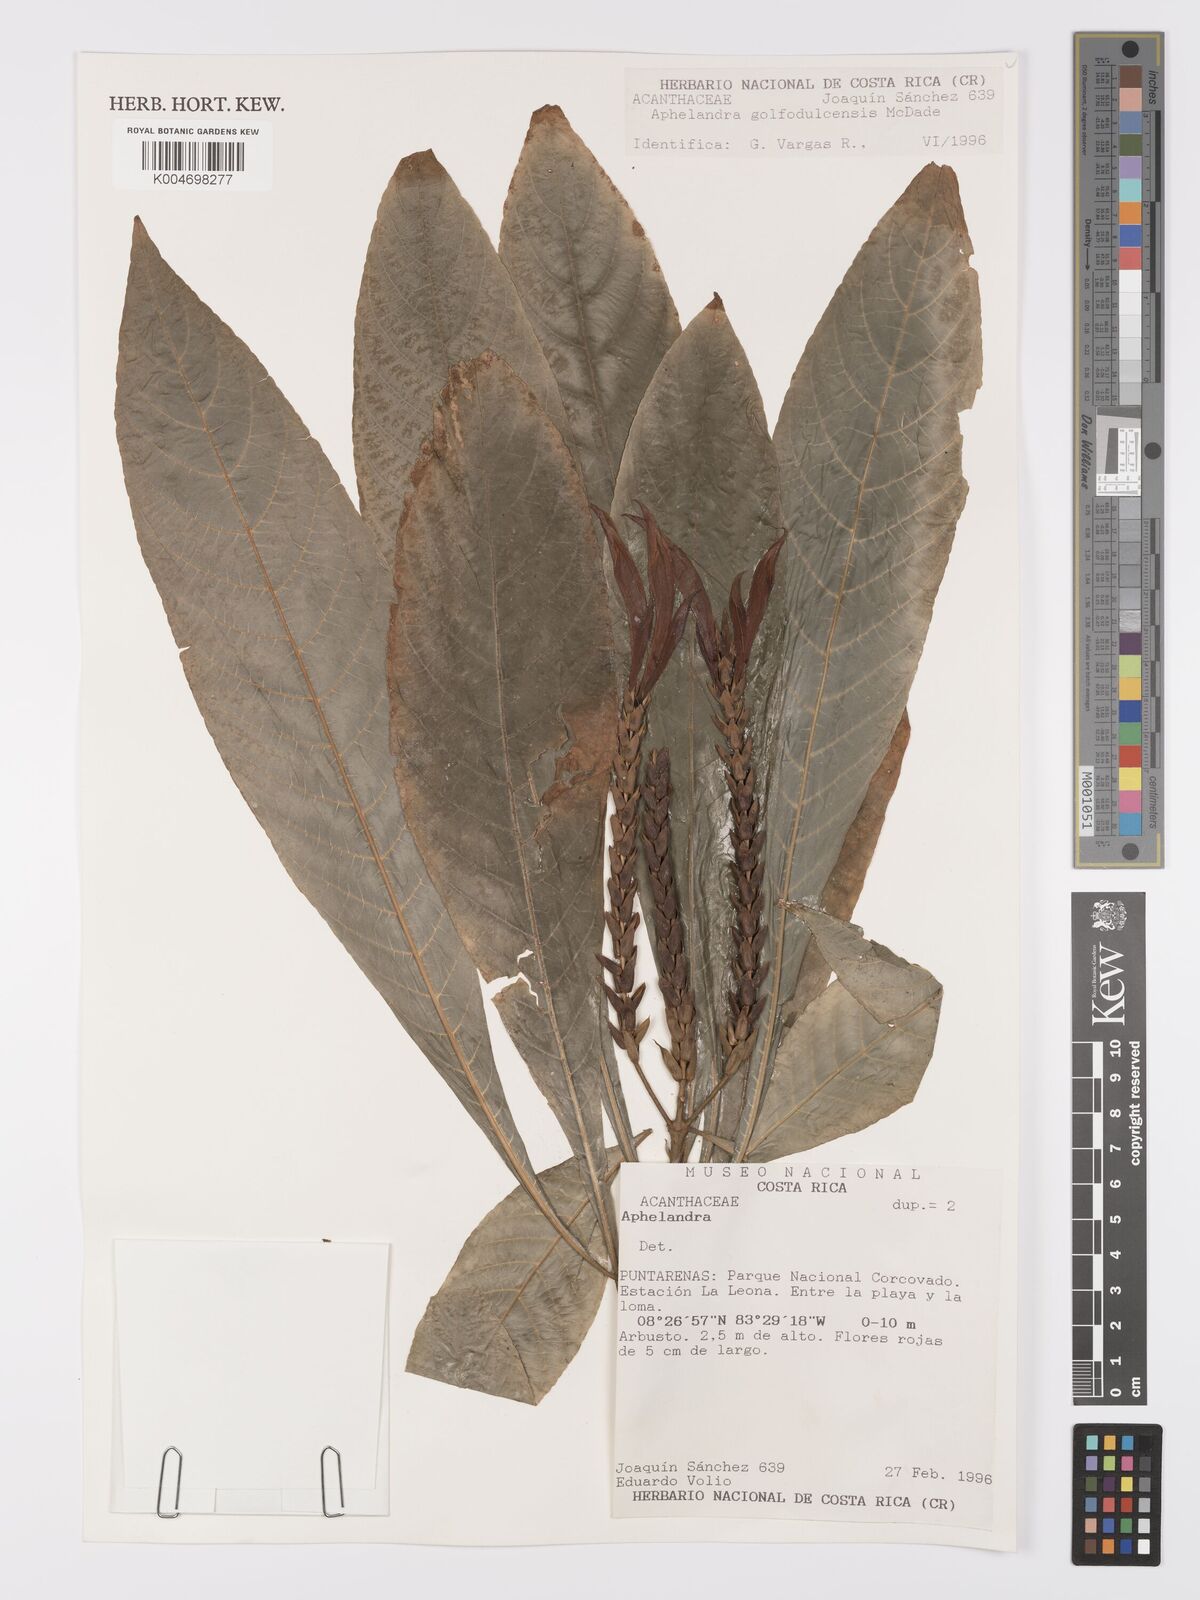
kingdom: Plantae
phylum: Tracheophyta
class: Magnoliopsida
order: Lamiales
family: Acanthaceae
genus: Aphelandra
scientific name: Aphelandra golfodulcensis
